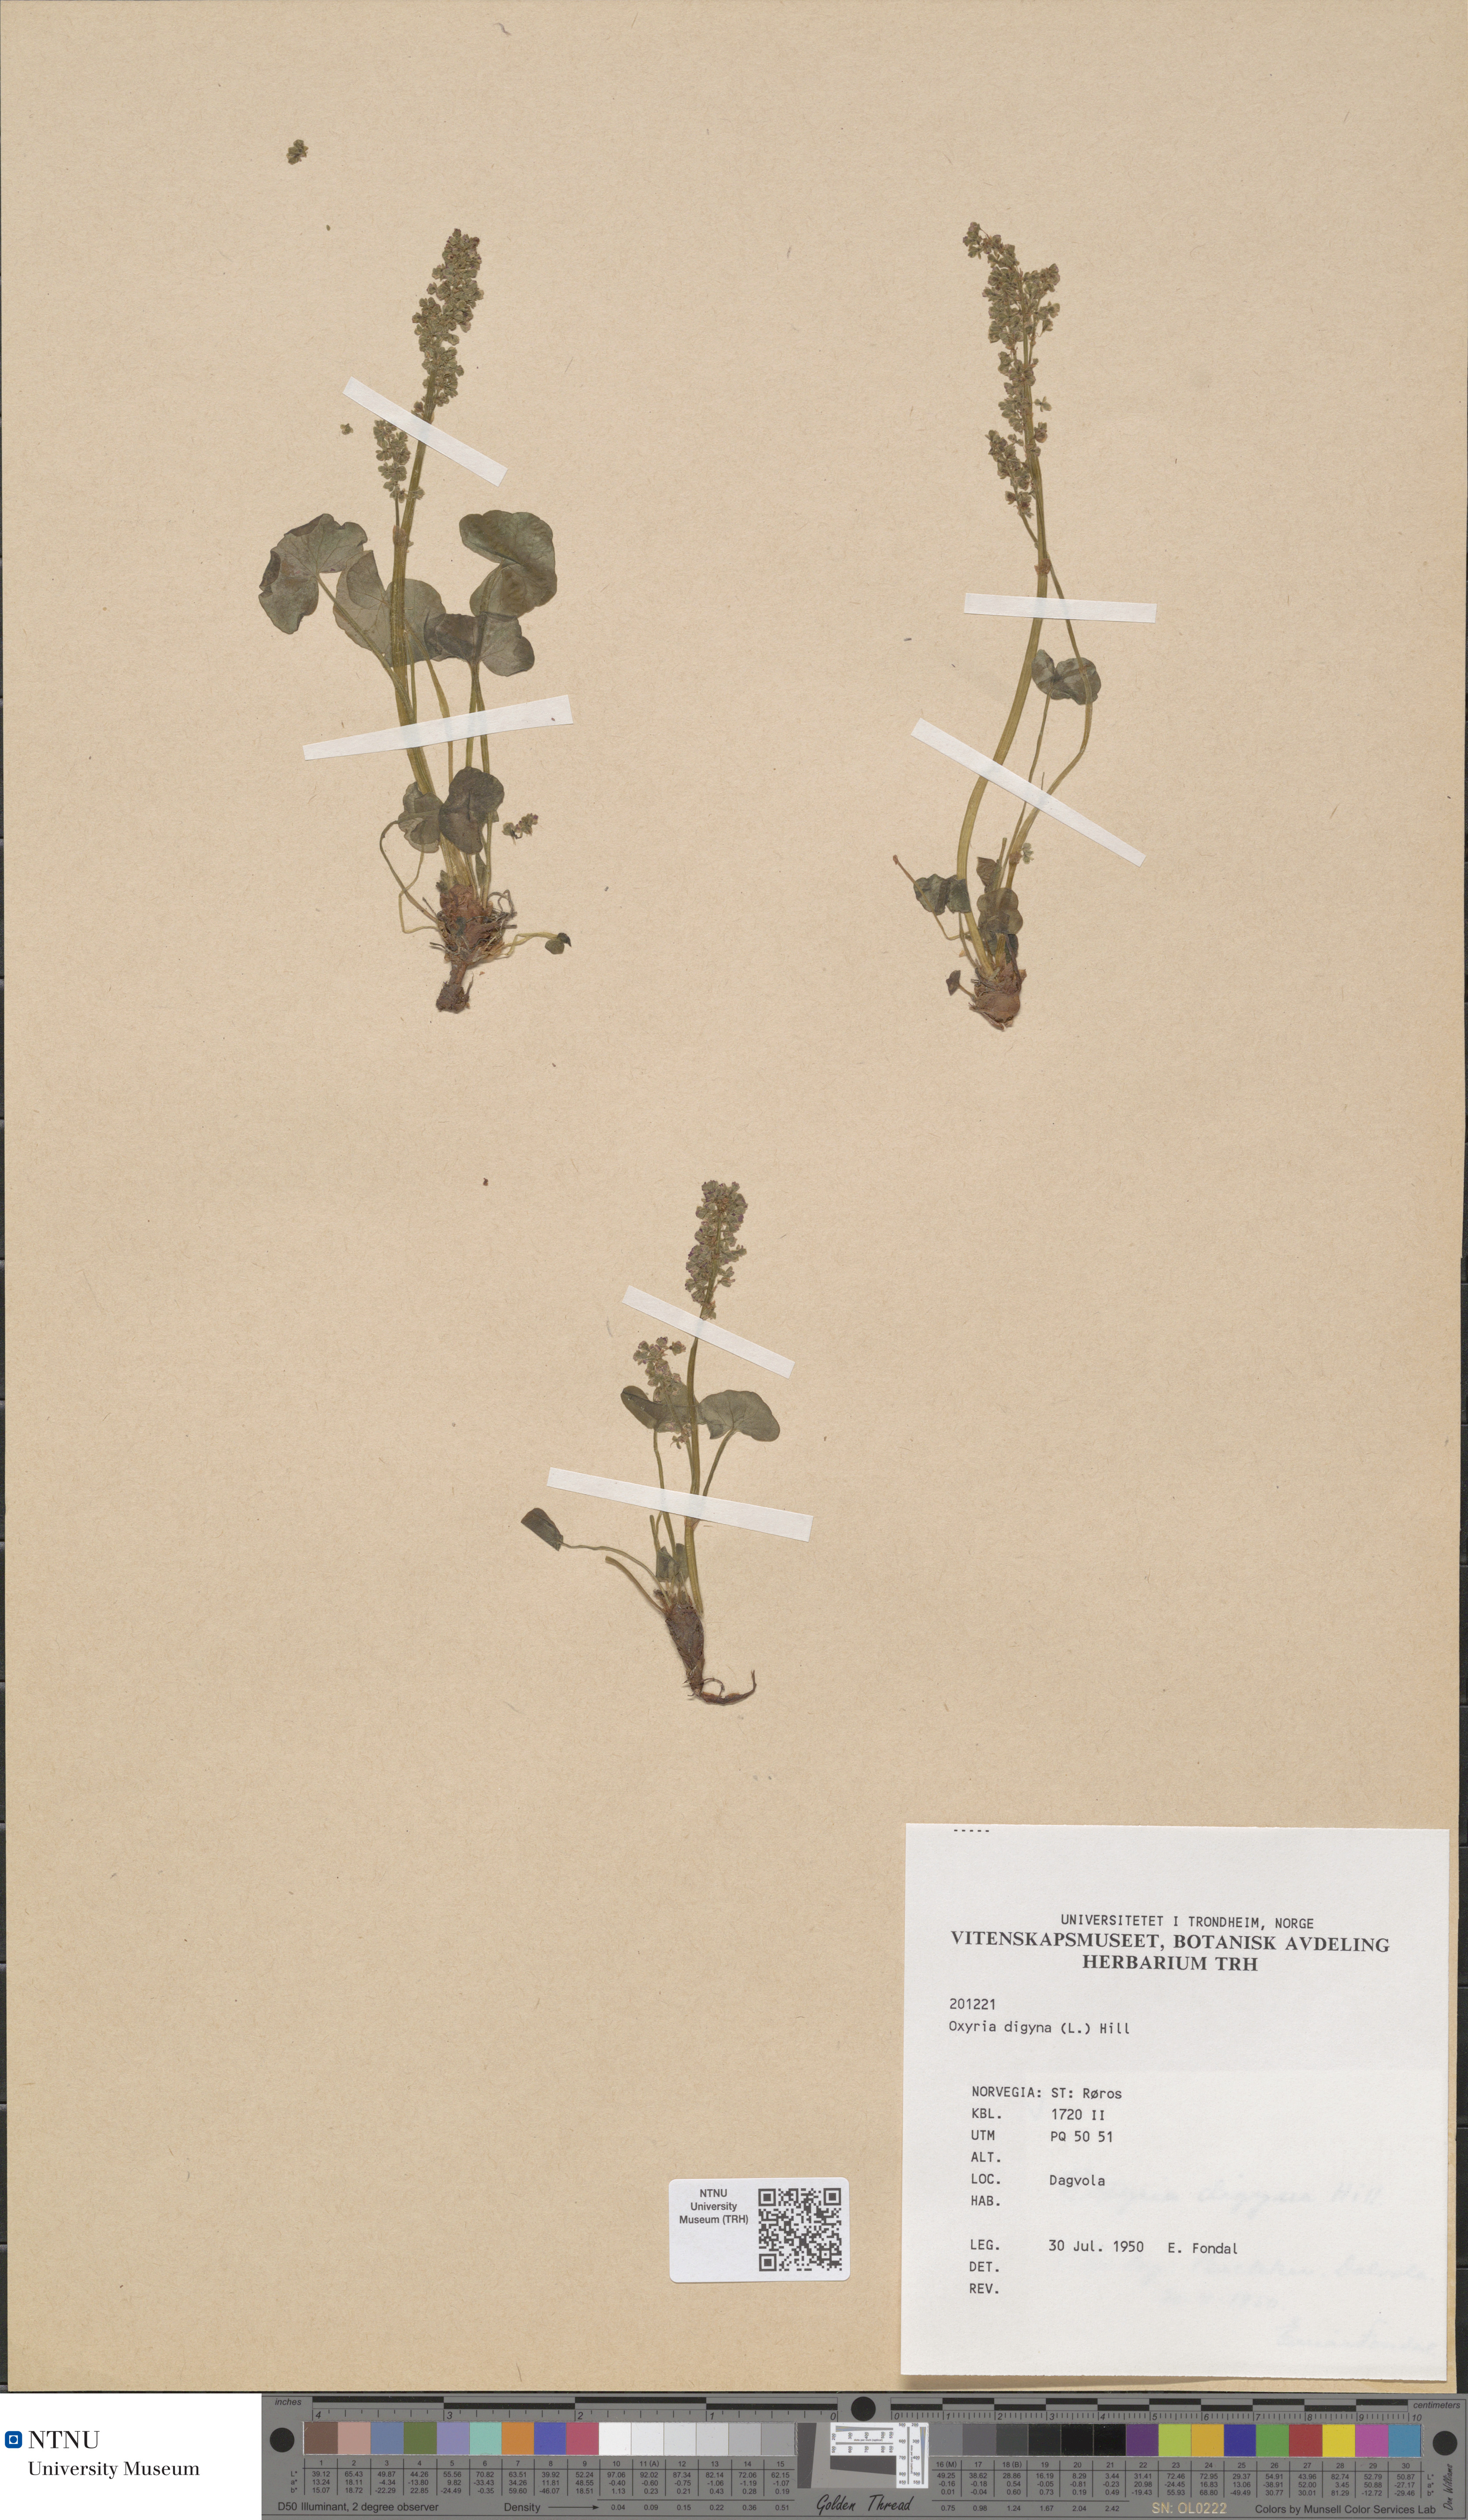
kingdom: Plantae
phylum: Tracheophyta
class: Magnoliopsida
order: Caryophyllales
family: Polygonaceae
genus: Oxyria
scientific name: Oxyria digyna
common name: Alpine mountain-sorrel
